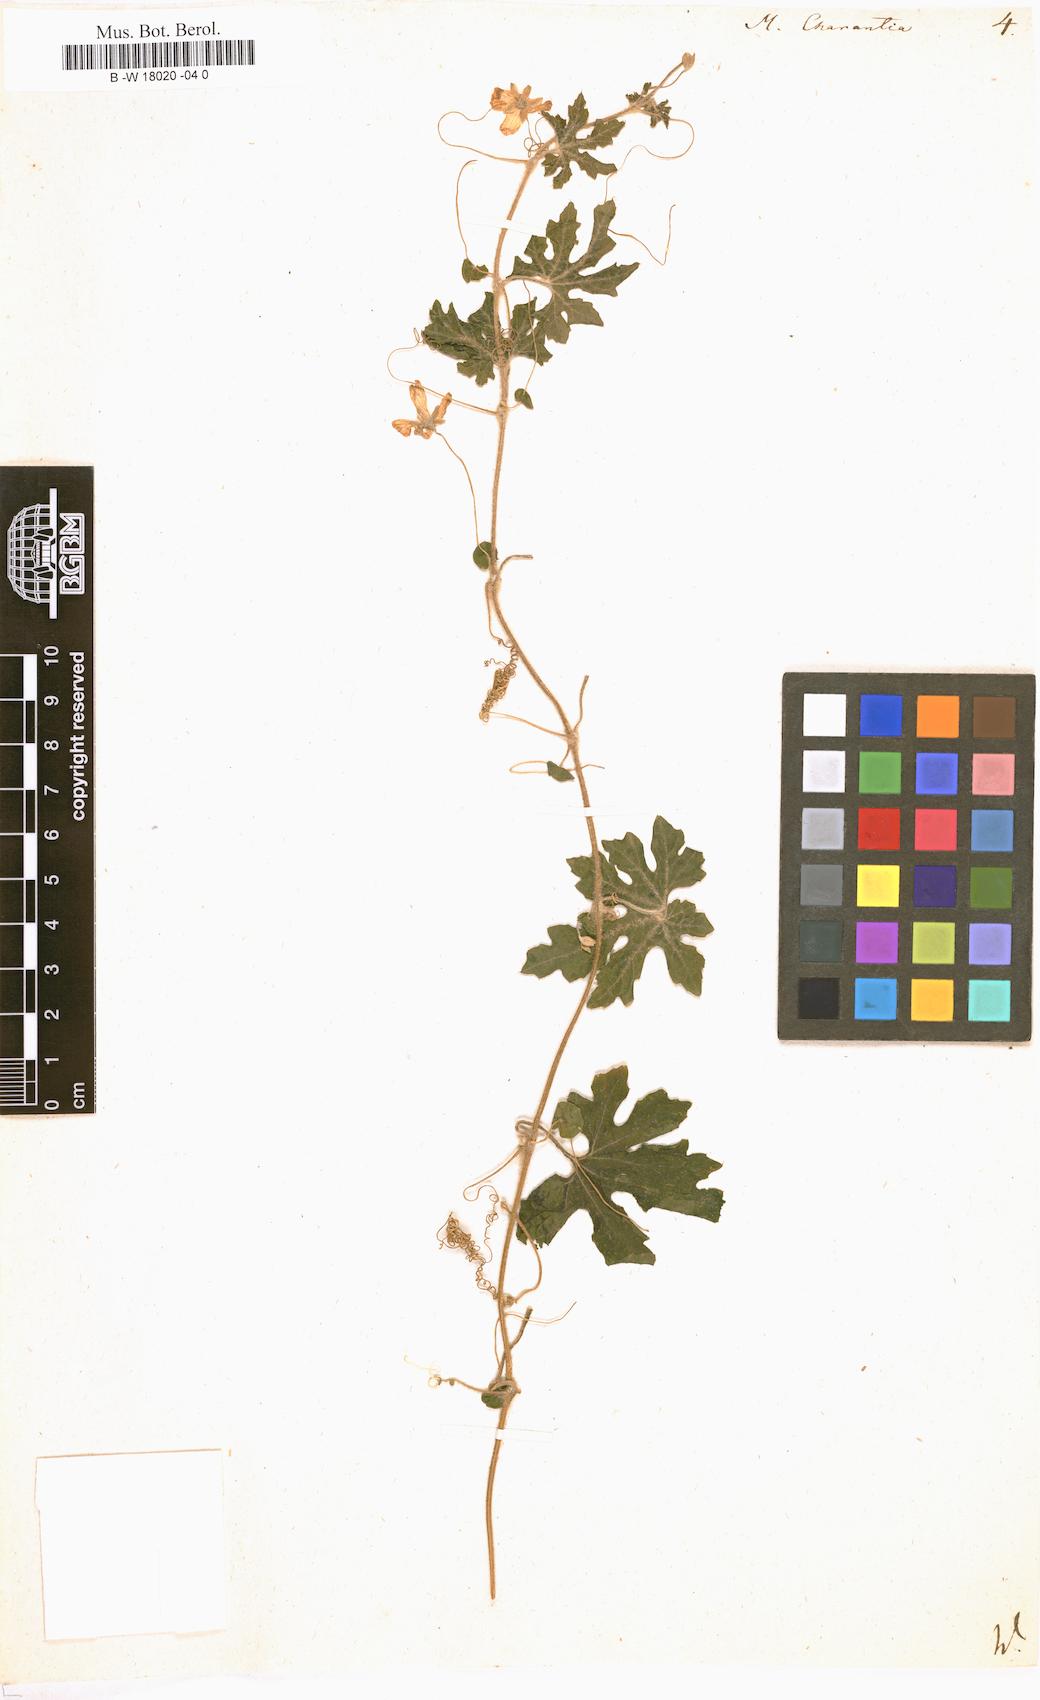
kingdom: Plantae
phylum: Tracheophyta
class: Magnoliopsida
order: Cucurbitales
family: Cucurbitaceae
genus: Momordica
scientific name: Momordica charantia
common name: Balsampear
